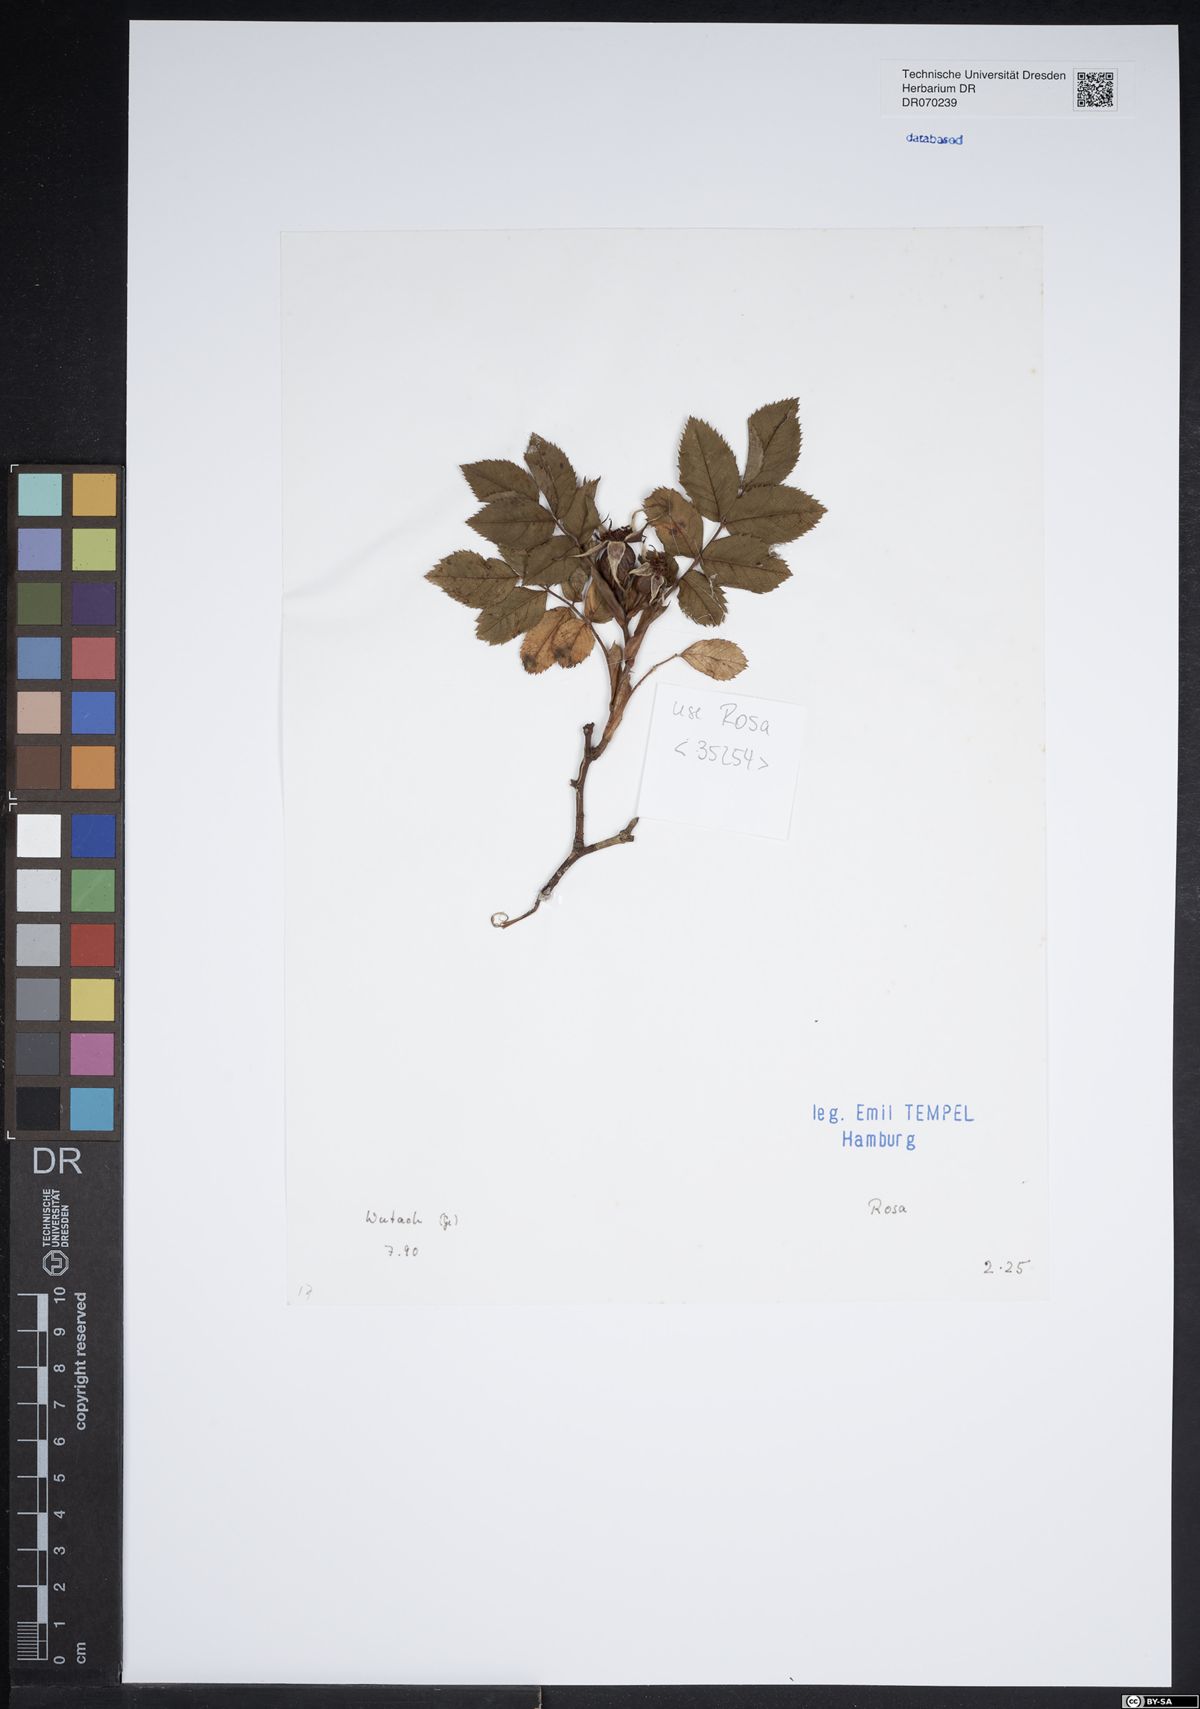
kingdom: Plantae
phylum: Tracheophyta
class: Magnoliopsida
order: Rosales
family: Rosaceae
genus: Rosa
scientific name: Rosa
